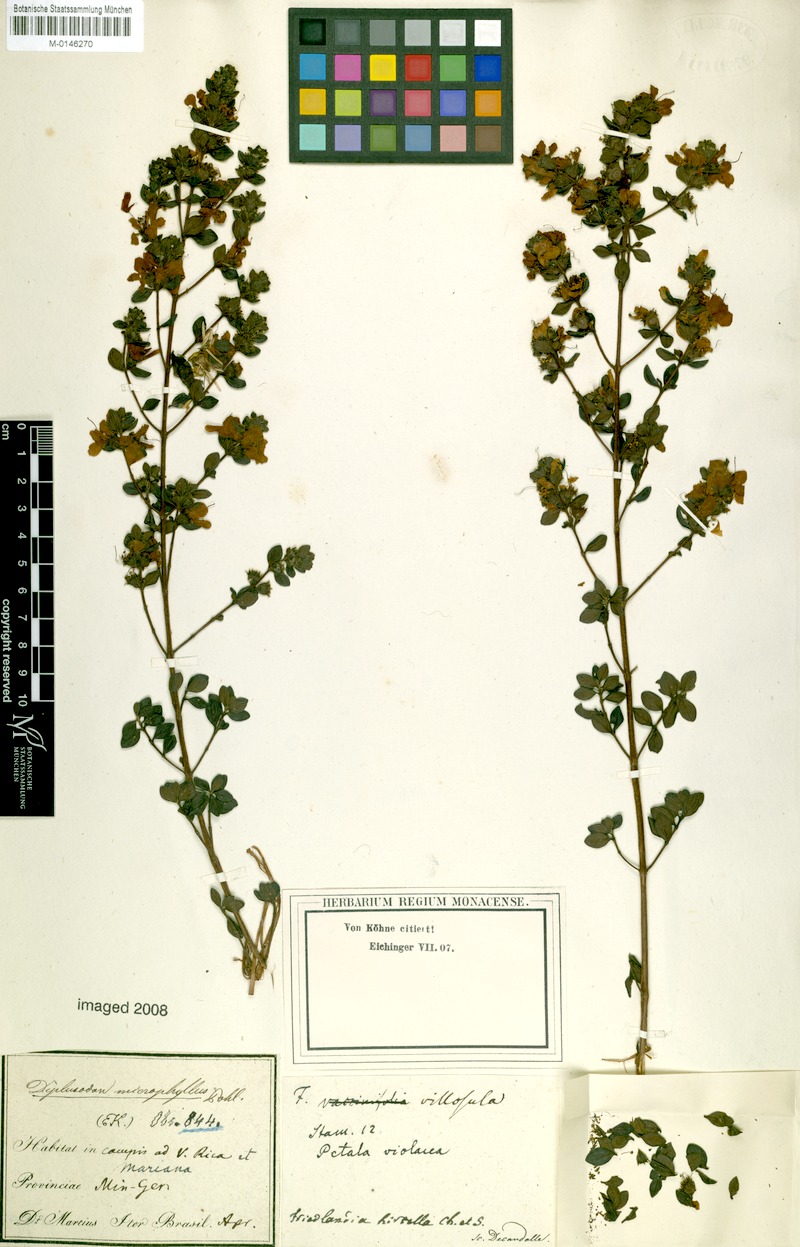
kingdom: Plantae
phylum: Tracheophyta
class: Magnoliopsida
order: Myrtales
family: Lythraceae
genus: Diplusodon
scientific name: Diplusodon microphyllus
